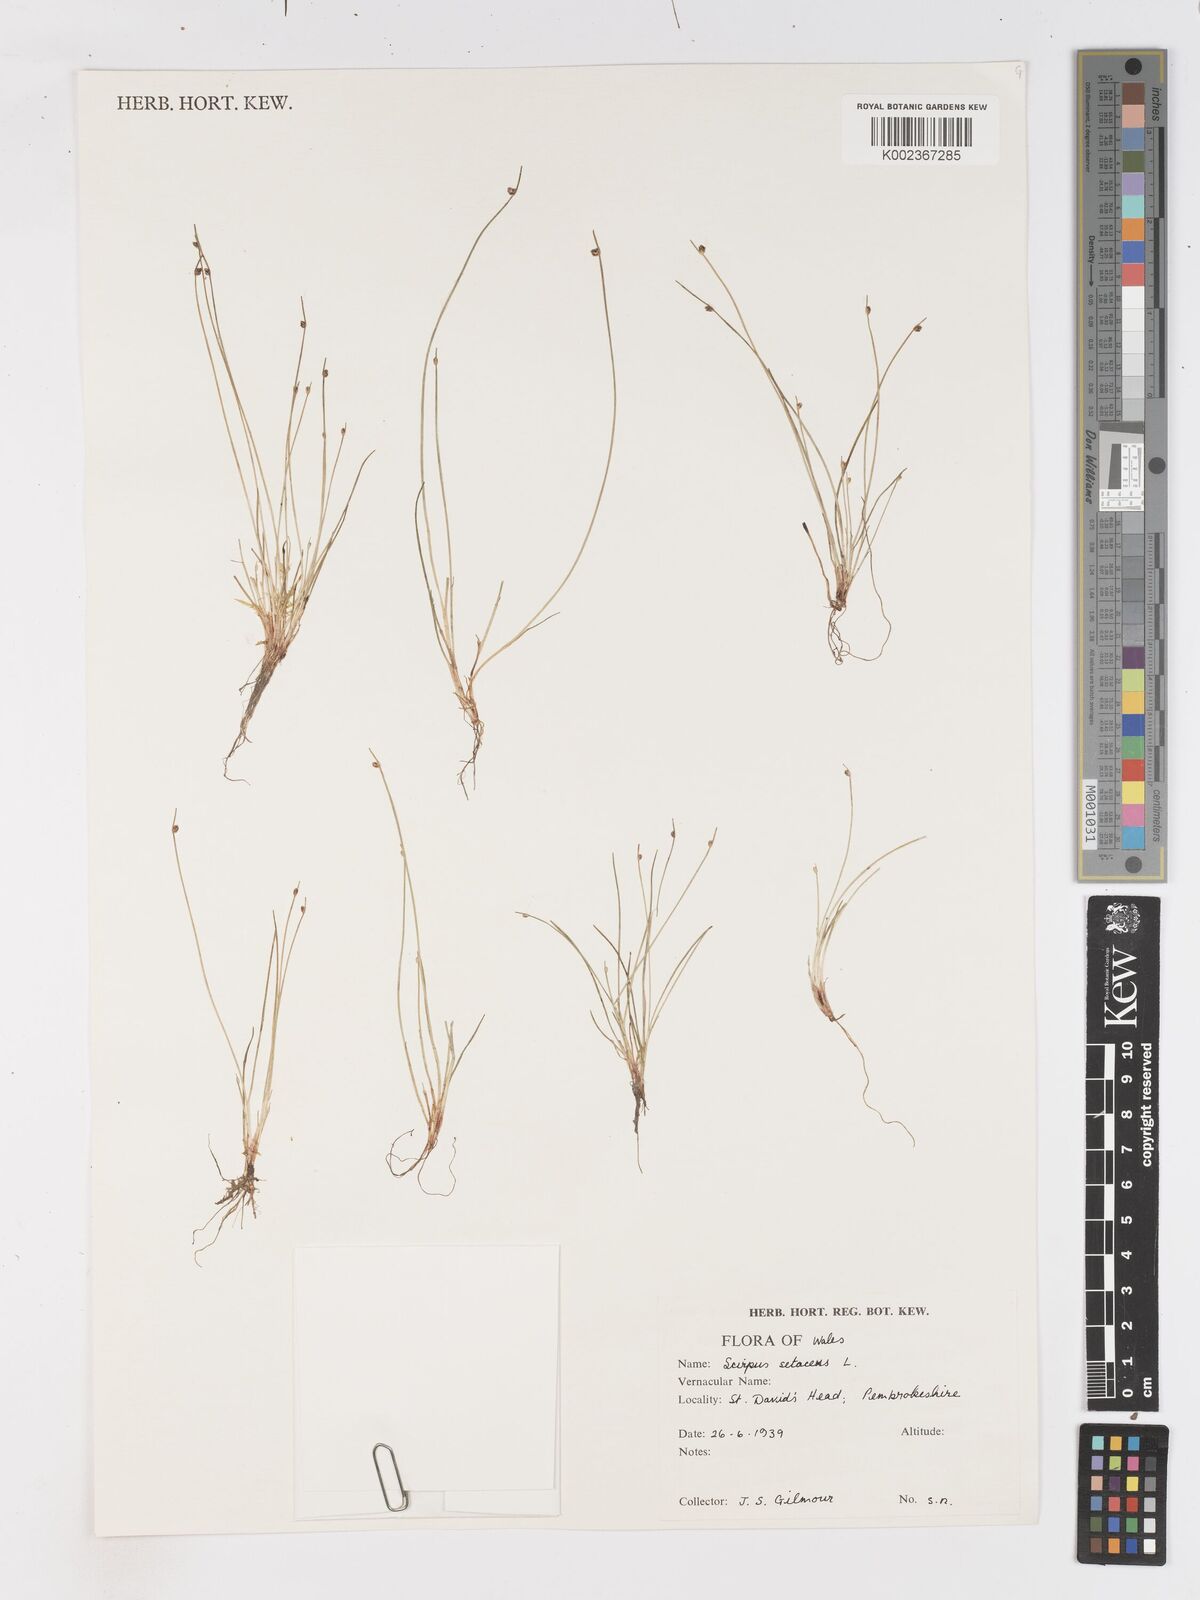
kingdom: Plantae
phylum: Tracheophyta
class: Liliopsida
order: Poales
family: Cyperaceae
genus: Isolepis
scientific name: Isolepis cernua
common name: Slender club-rush
